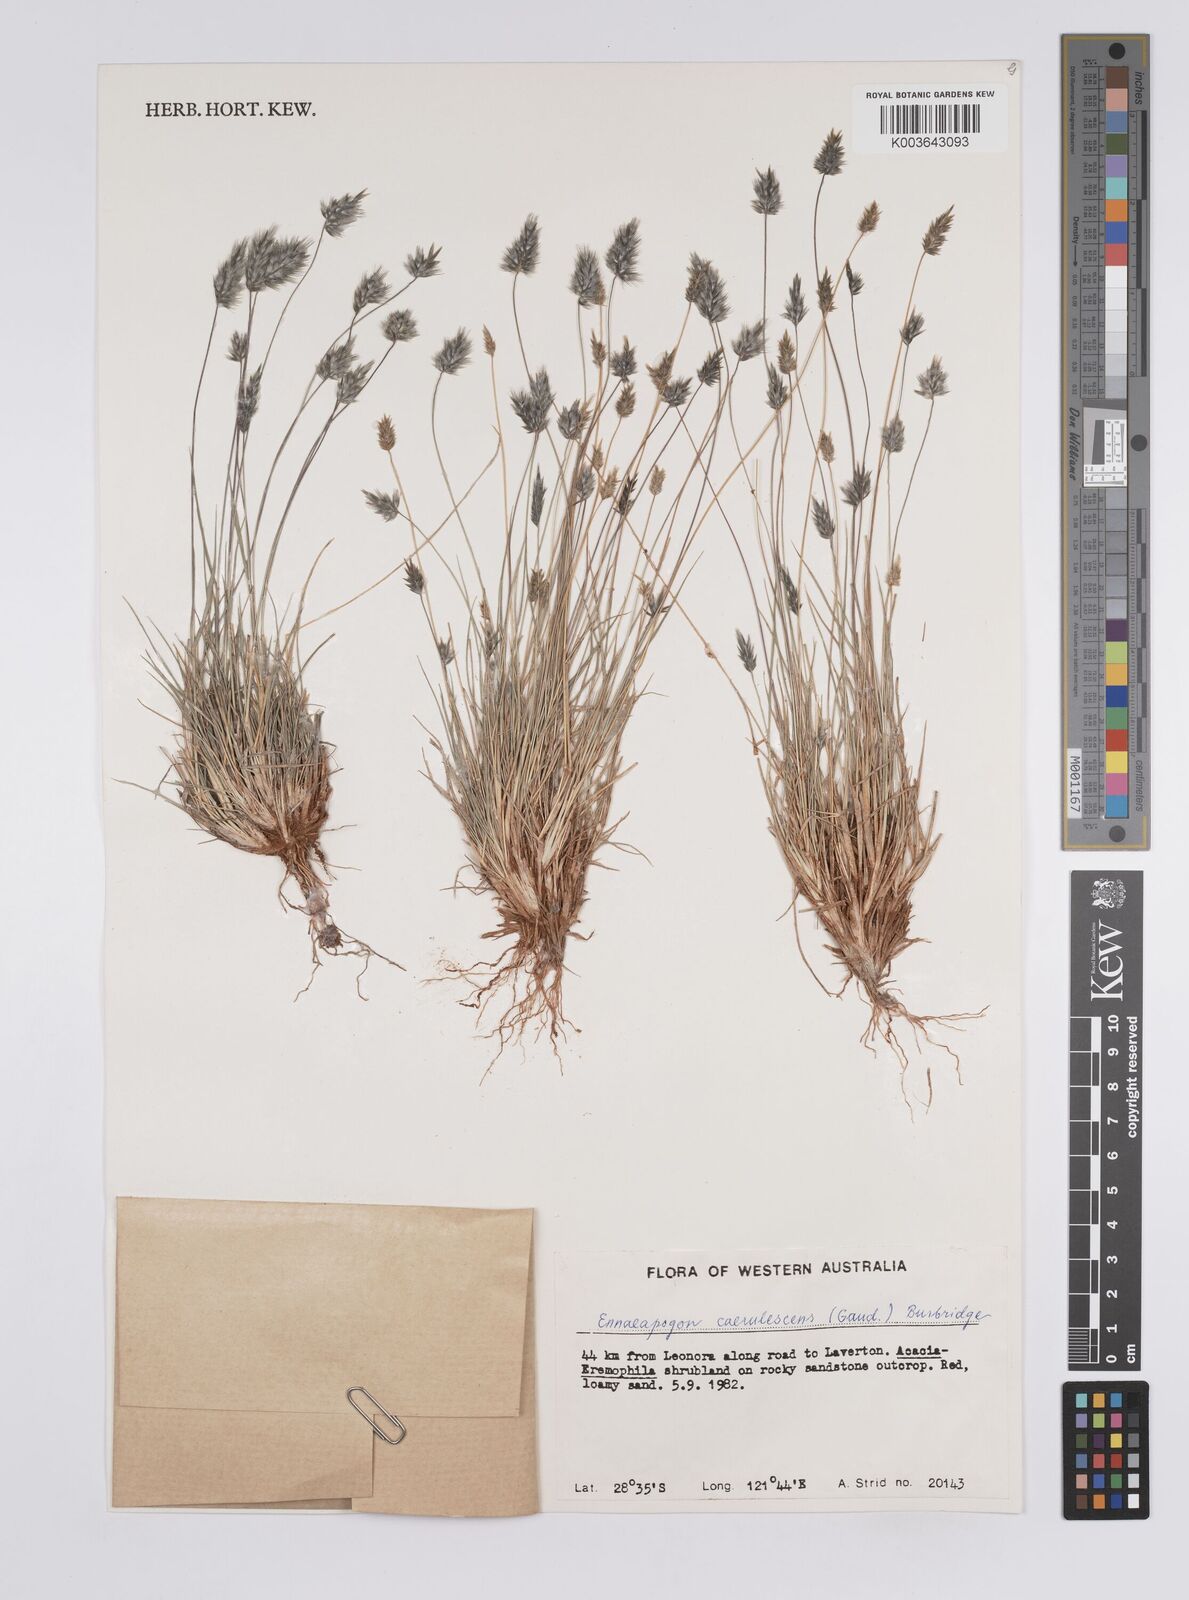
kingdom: Plantae
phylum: Tracheophyta
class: Liliopsida
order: Poales
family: Poaceae
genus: Enneapogon
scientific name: Enneapogon caerulescens
